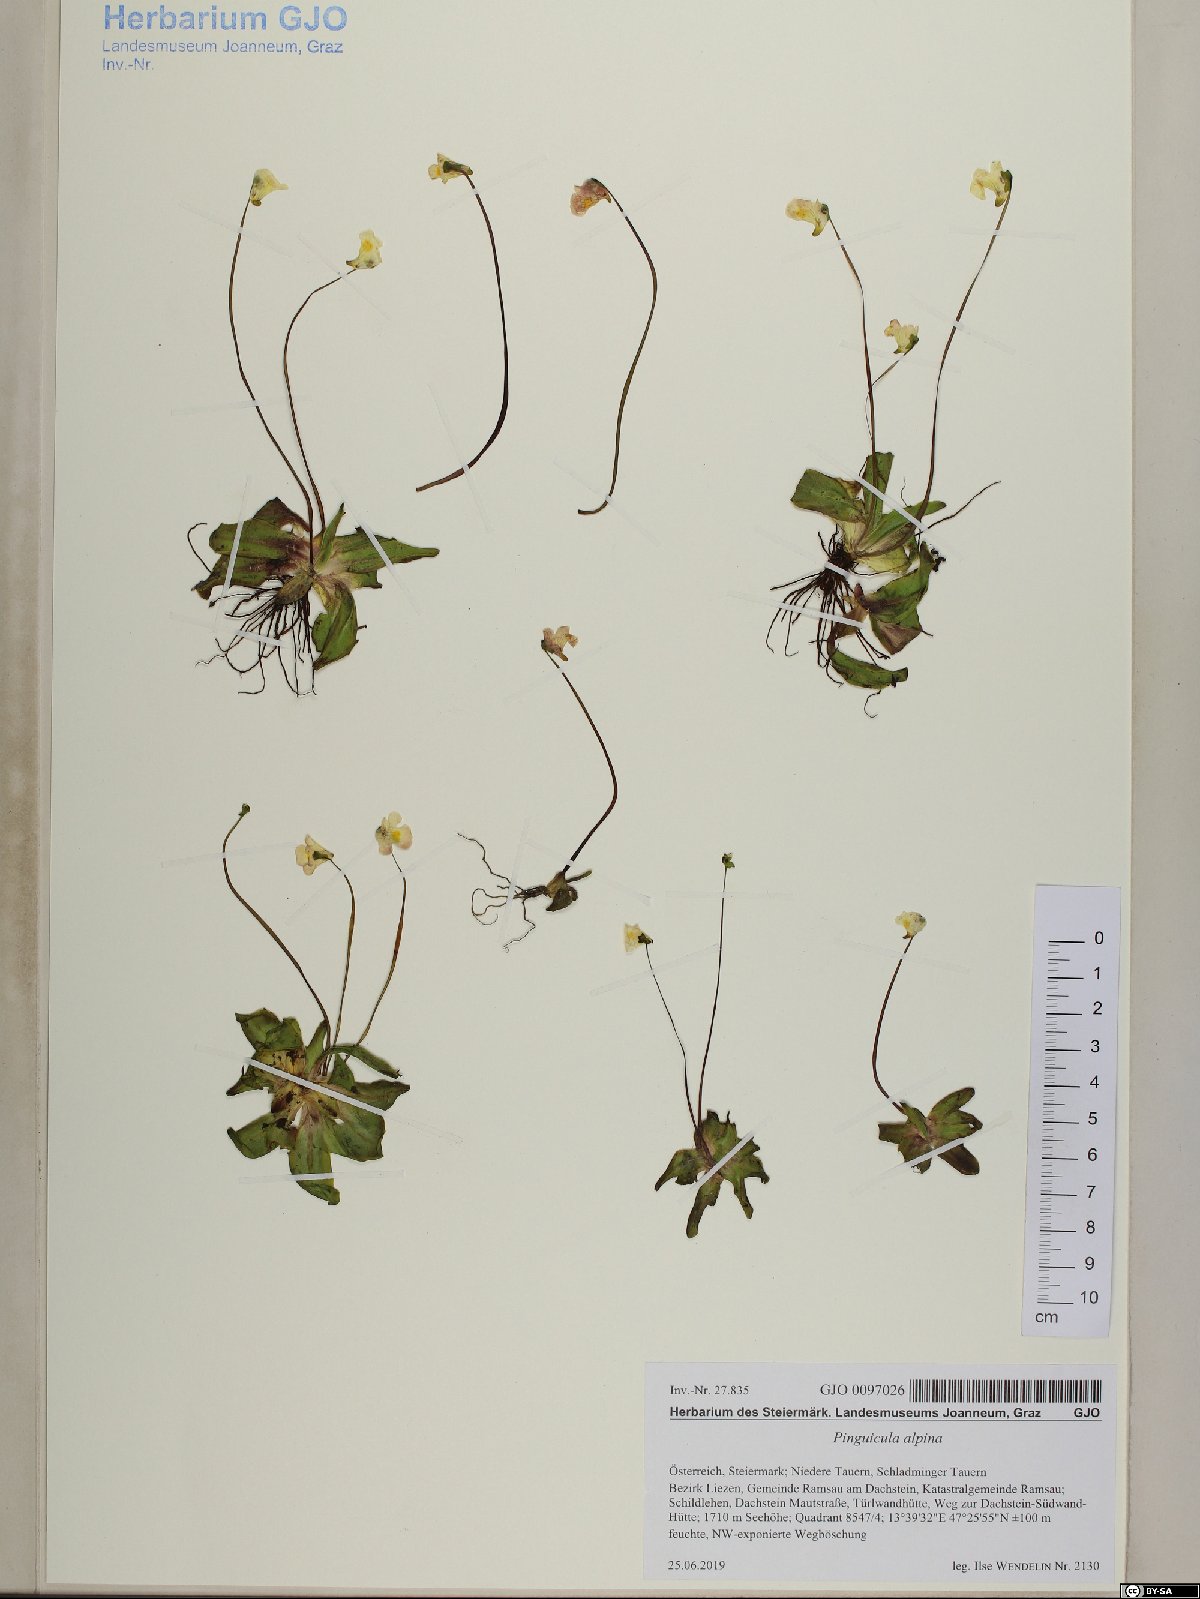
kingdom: Plantae
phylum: Tracheophyta
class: Magnoliopsida
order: Lamiales
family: Lentibulariaceae
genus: Pinguicula
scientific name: Pinguicula alpina
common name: Alpine butterwort
